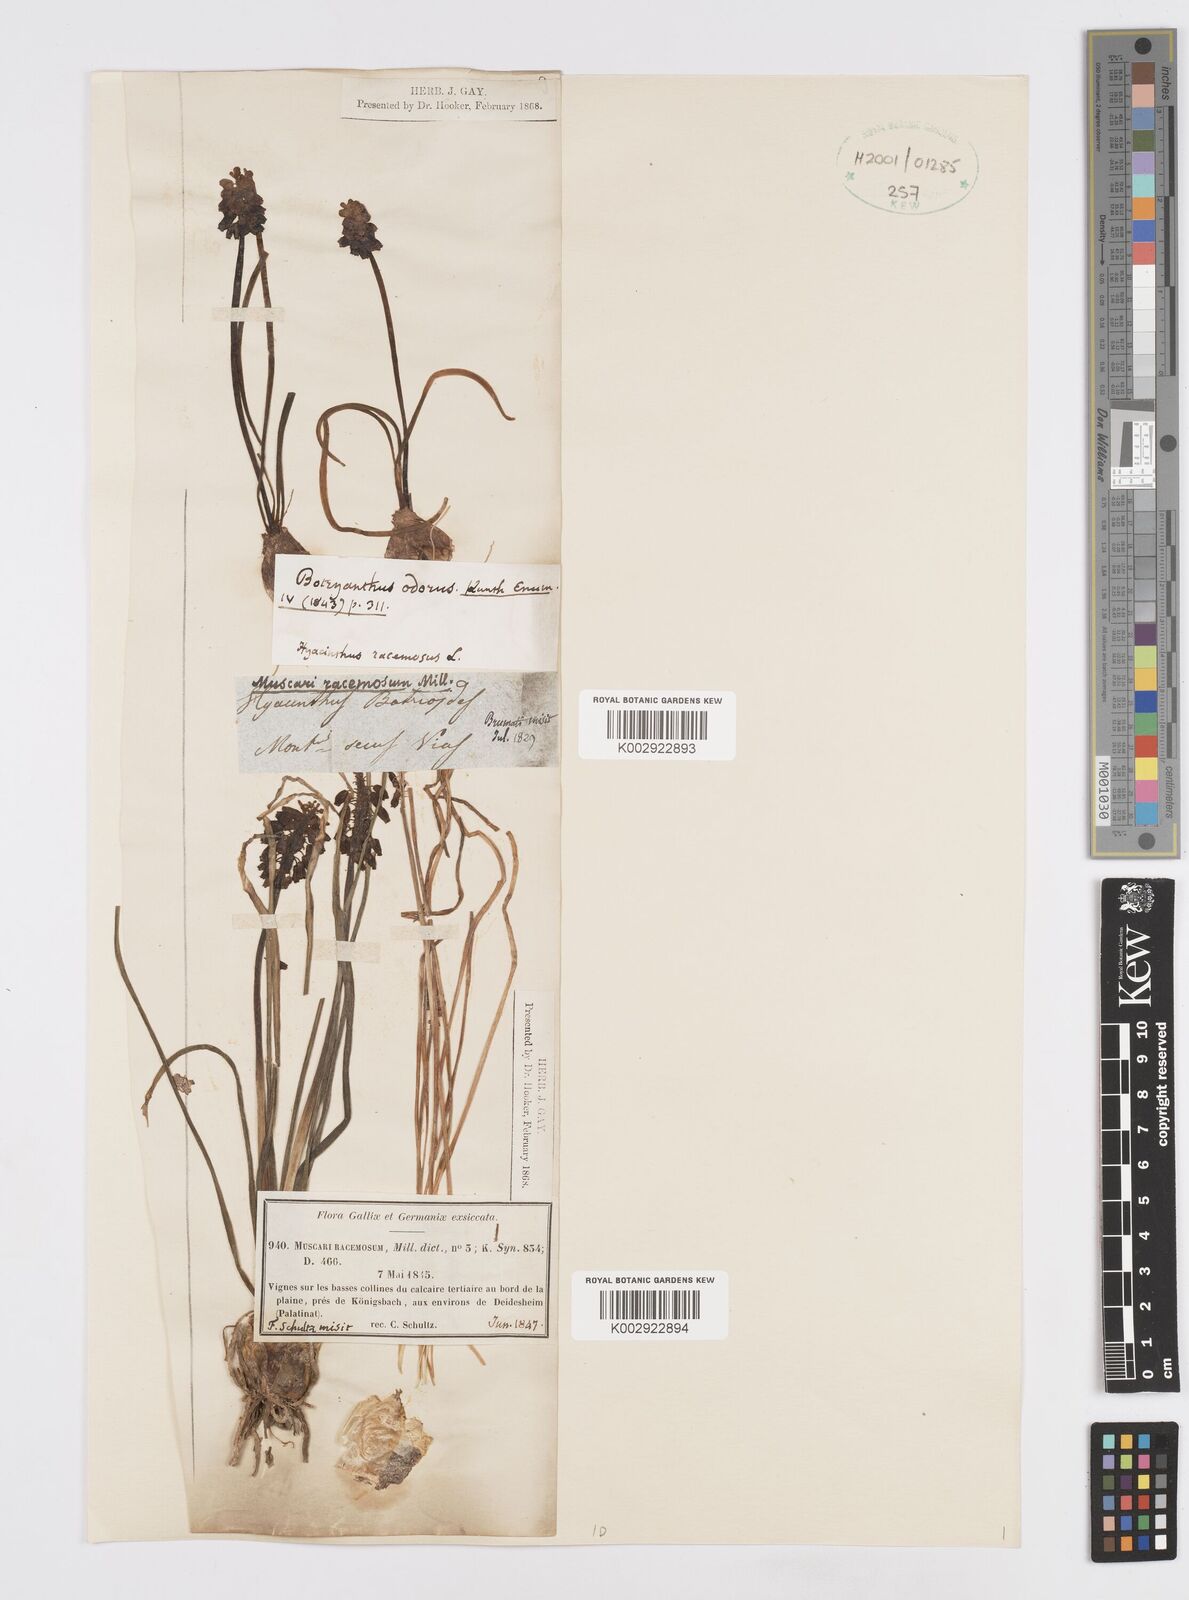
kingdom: Plantae
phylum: Tracheophyta
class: Liliopsida
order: Asparagales
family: Asparagaceae
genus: Muscarimia
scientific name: Muscarimia muscari
